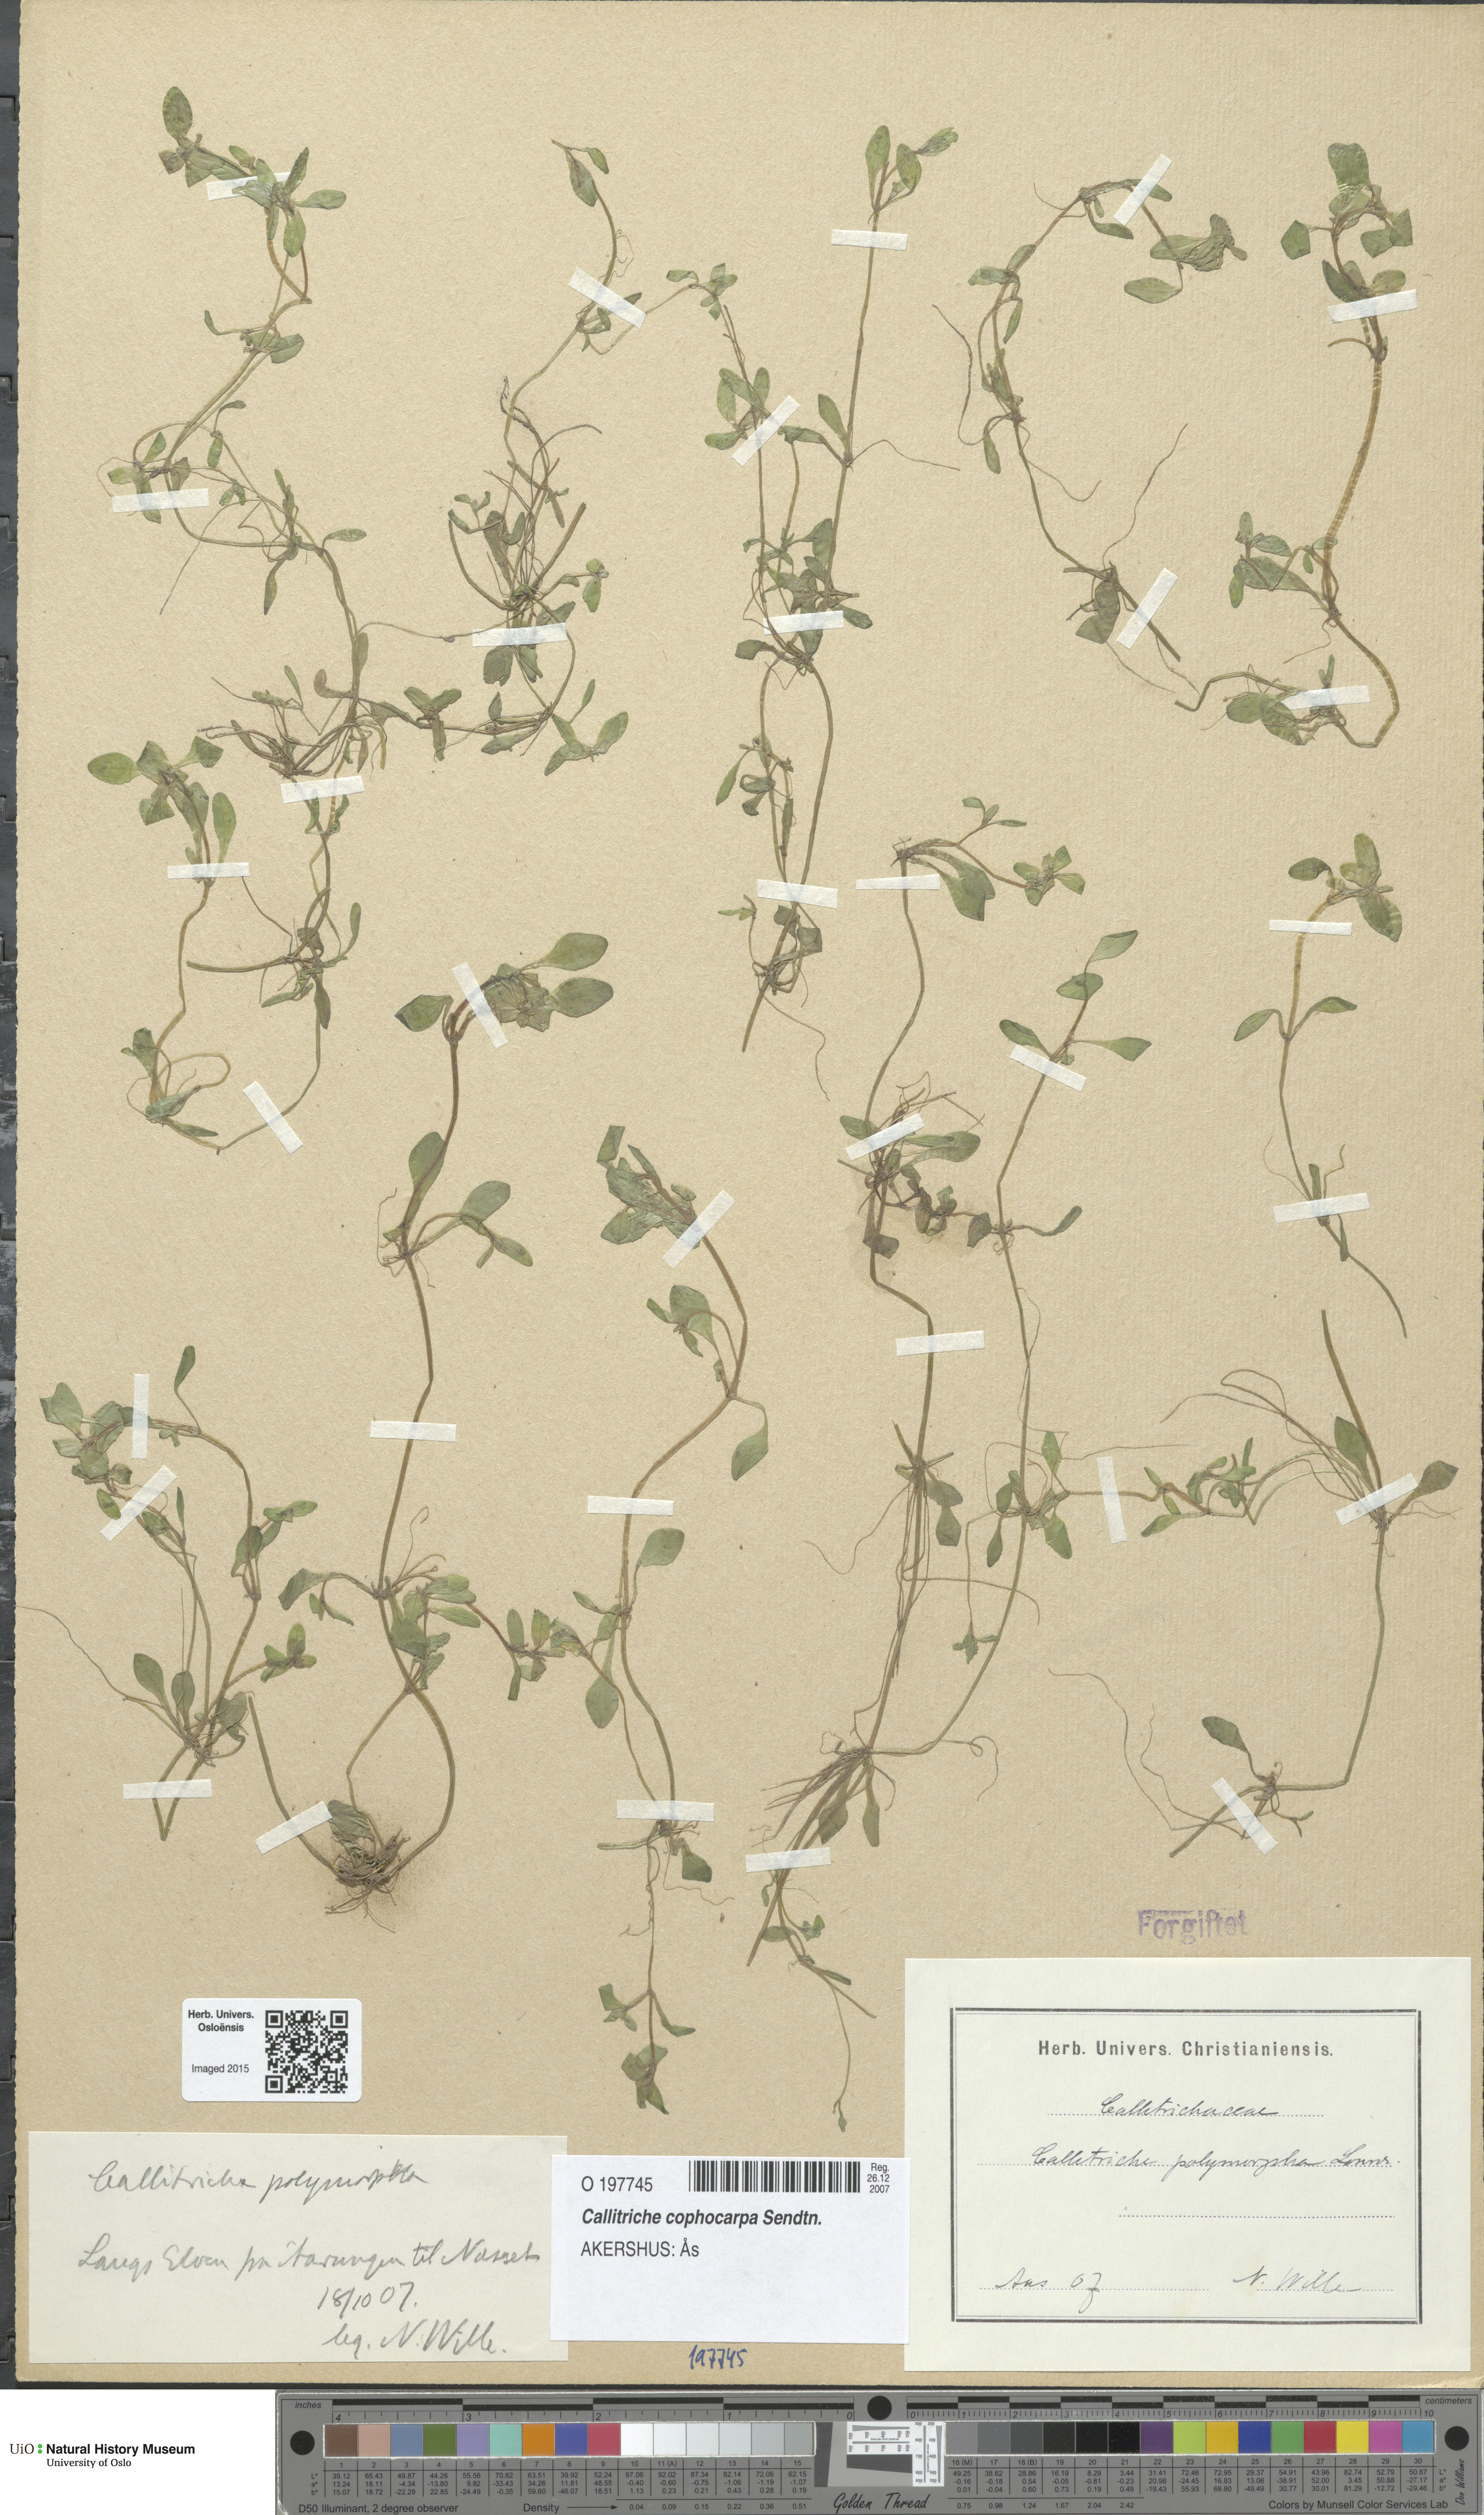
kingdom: Plantae
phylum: Tracheophyta
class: Magnoliopsida
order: Lamiales
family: Plantaginaceae
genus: Callitriche
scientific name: Callitriche cophocarpa
